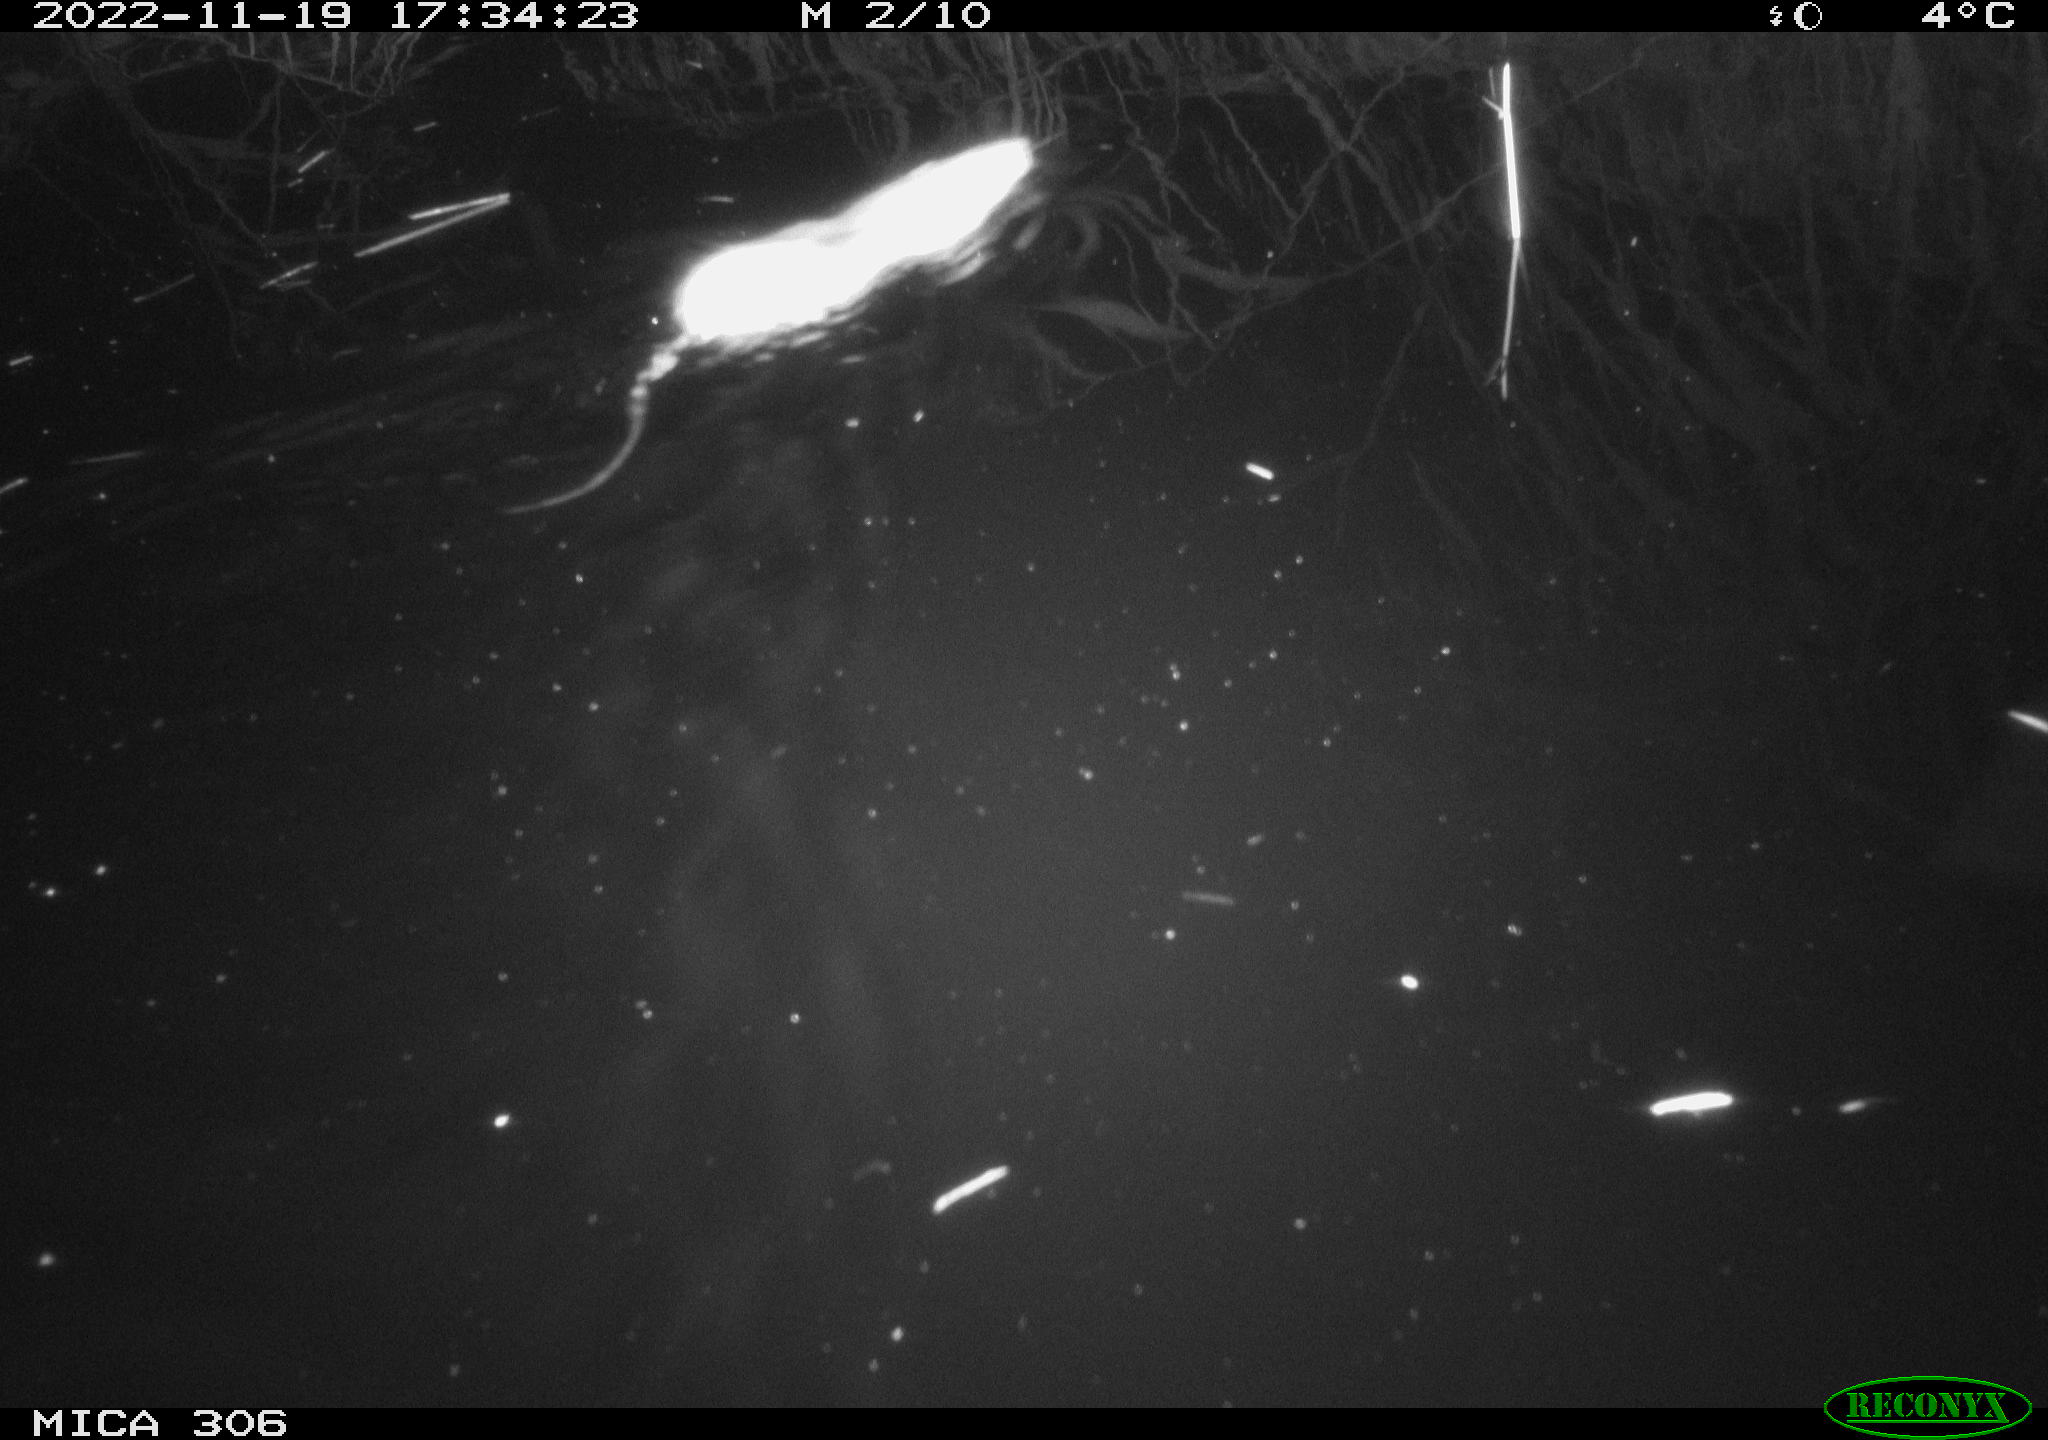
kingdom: Animalia
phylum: Chordata
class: Mammalia
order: Rodentia
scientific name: Rodentia
